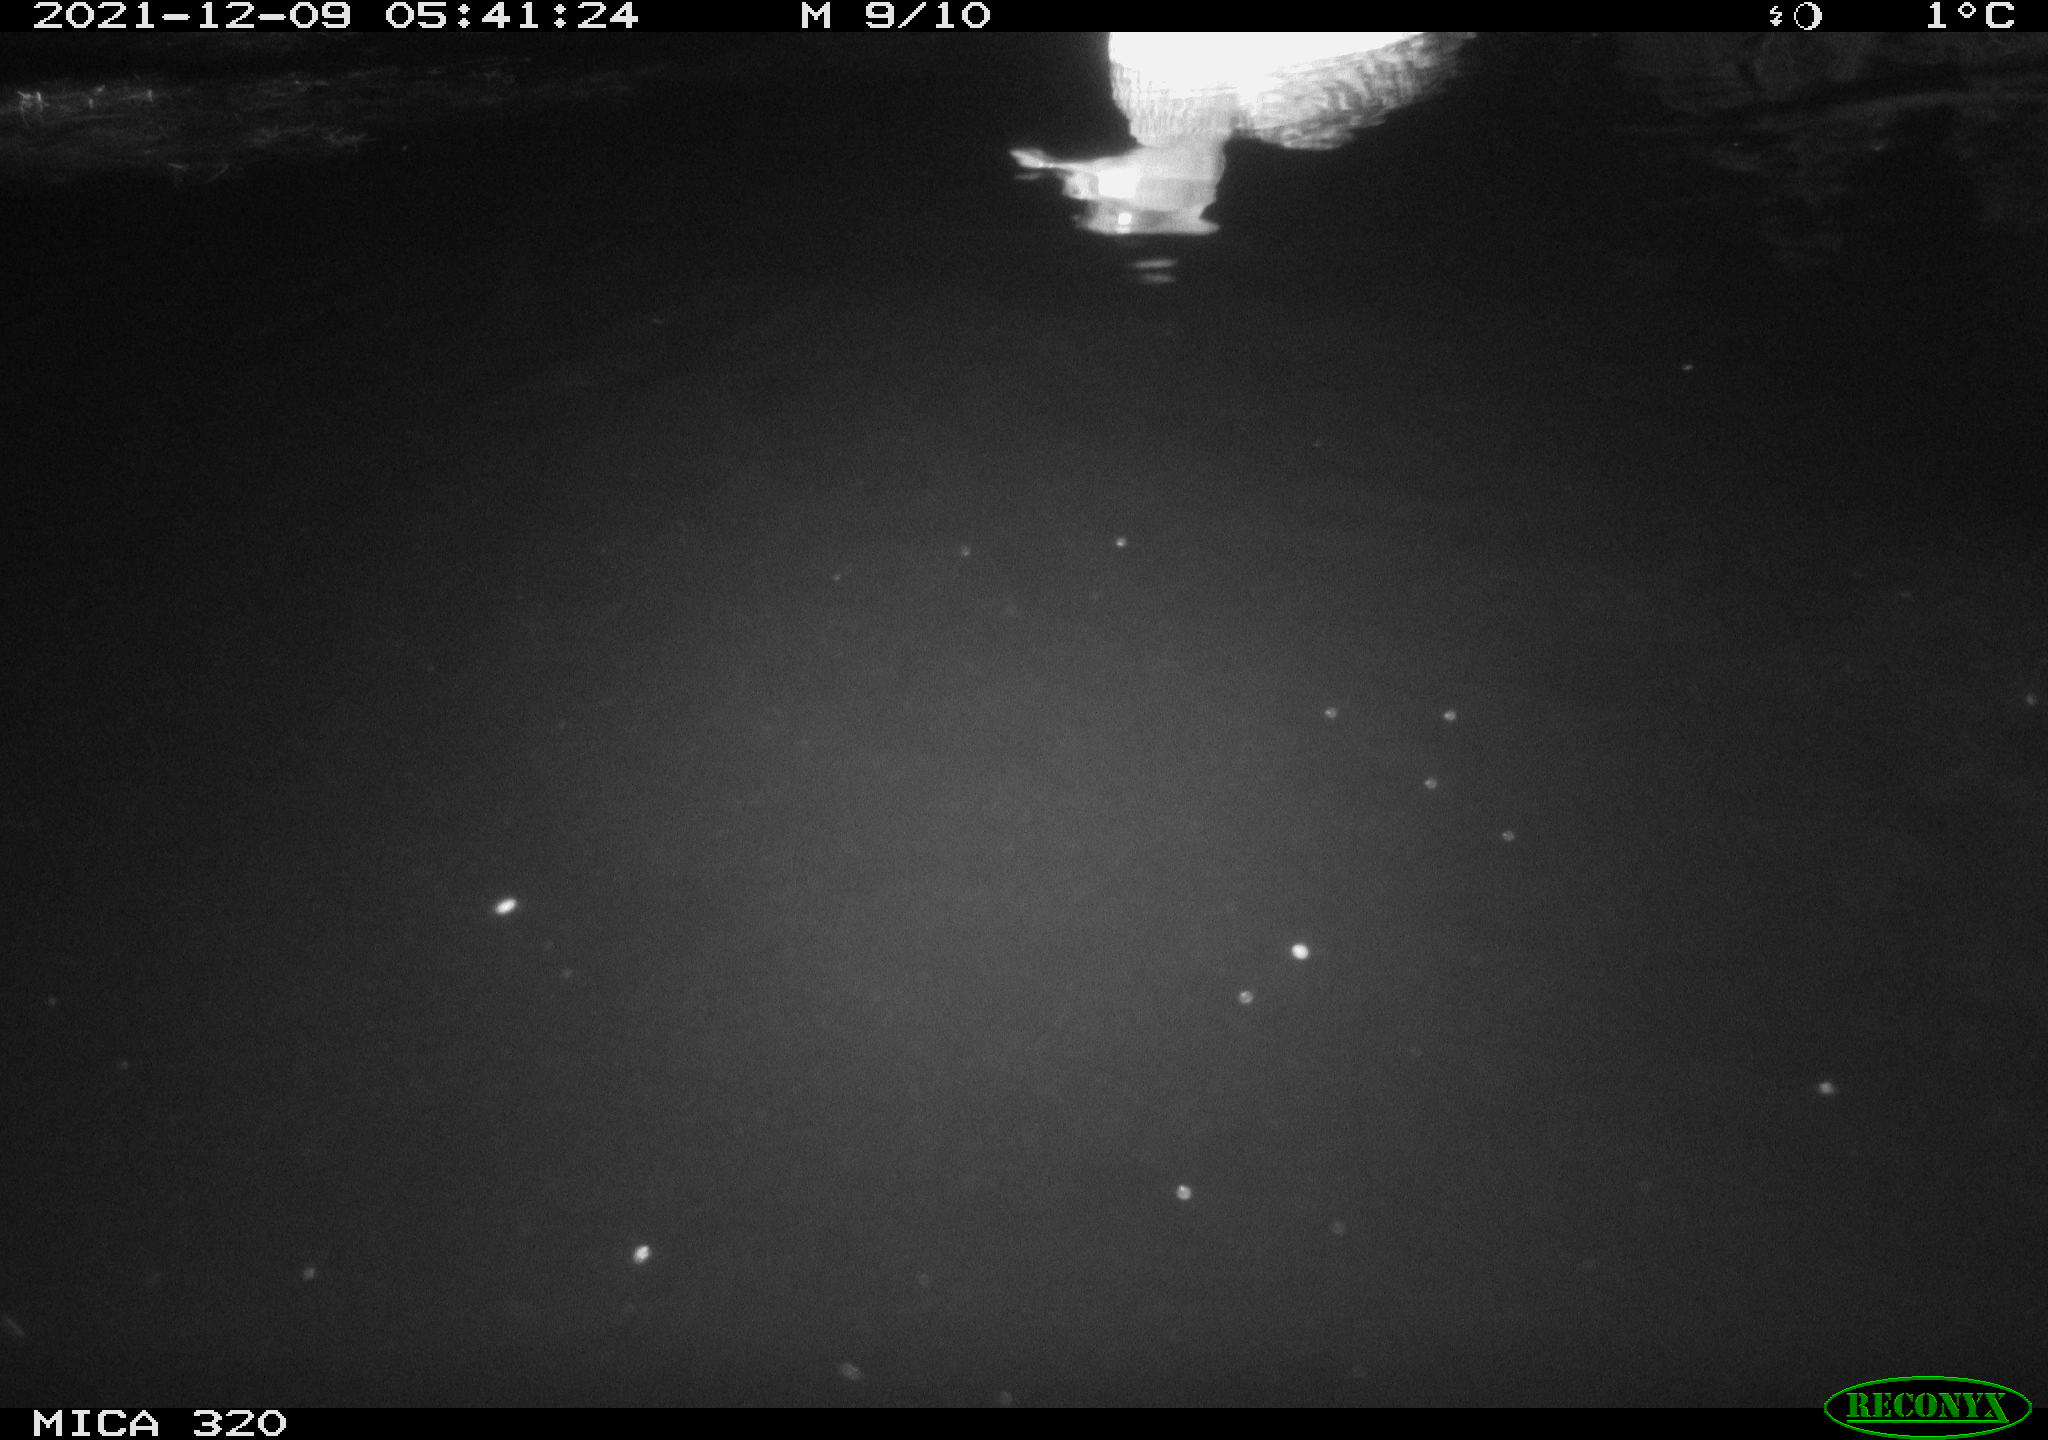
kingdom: Animalia
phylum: Chordata
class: Aves
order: Anseriformes
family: Anatidae
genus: Mareca
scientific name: Mareca strepera
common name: Gadwall
